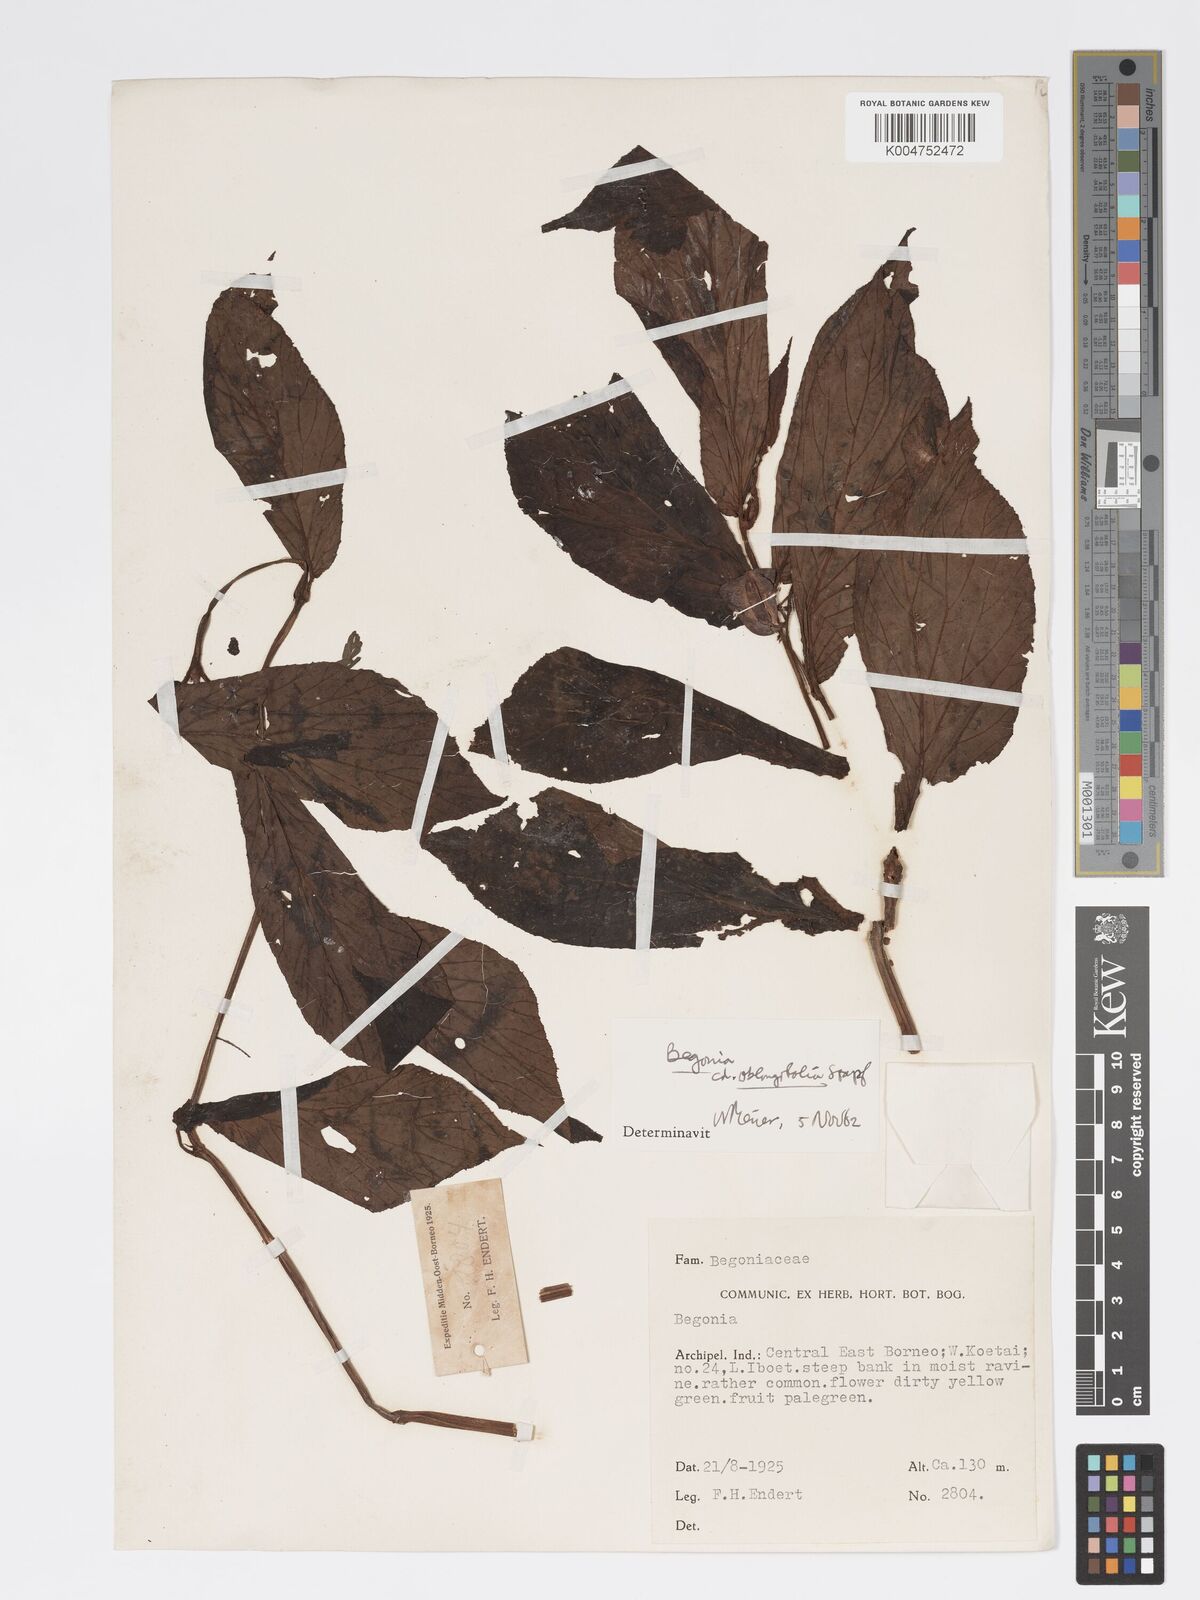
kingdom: Plantae
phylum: Tracheophyta
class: Magnoliopsida
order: Cucurbitales
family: Begoniaceae
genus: Begonia
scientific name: Begonia oblongifolia
